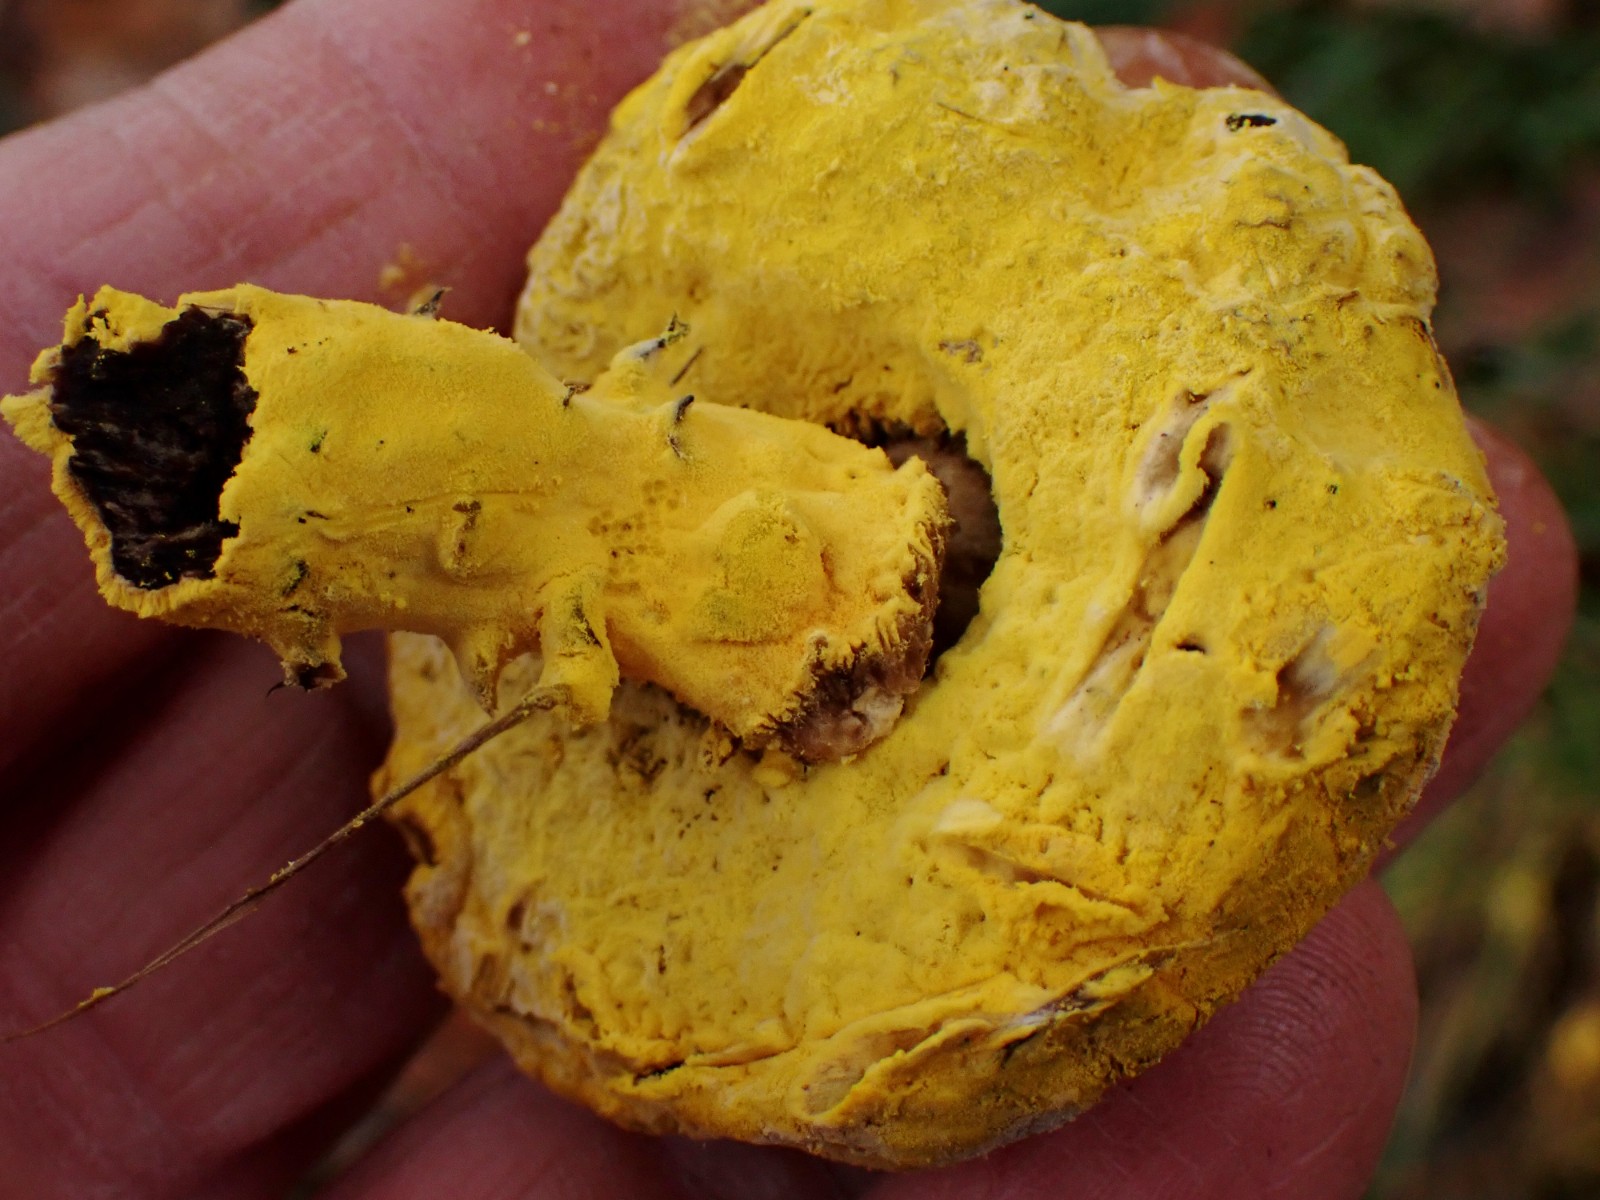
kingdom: Fungi
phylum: Ascomycota
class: Sordariomycetes
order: Hypocreales
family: Hypocreaceae
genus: Hypomyces
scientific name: Hypomyces
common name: snylteskorpe
